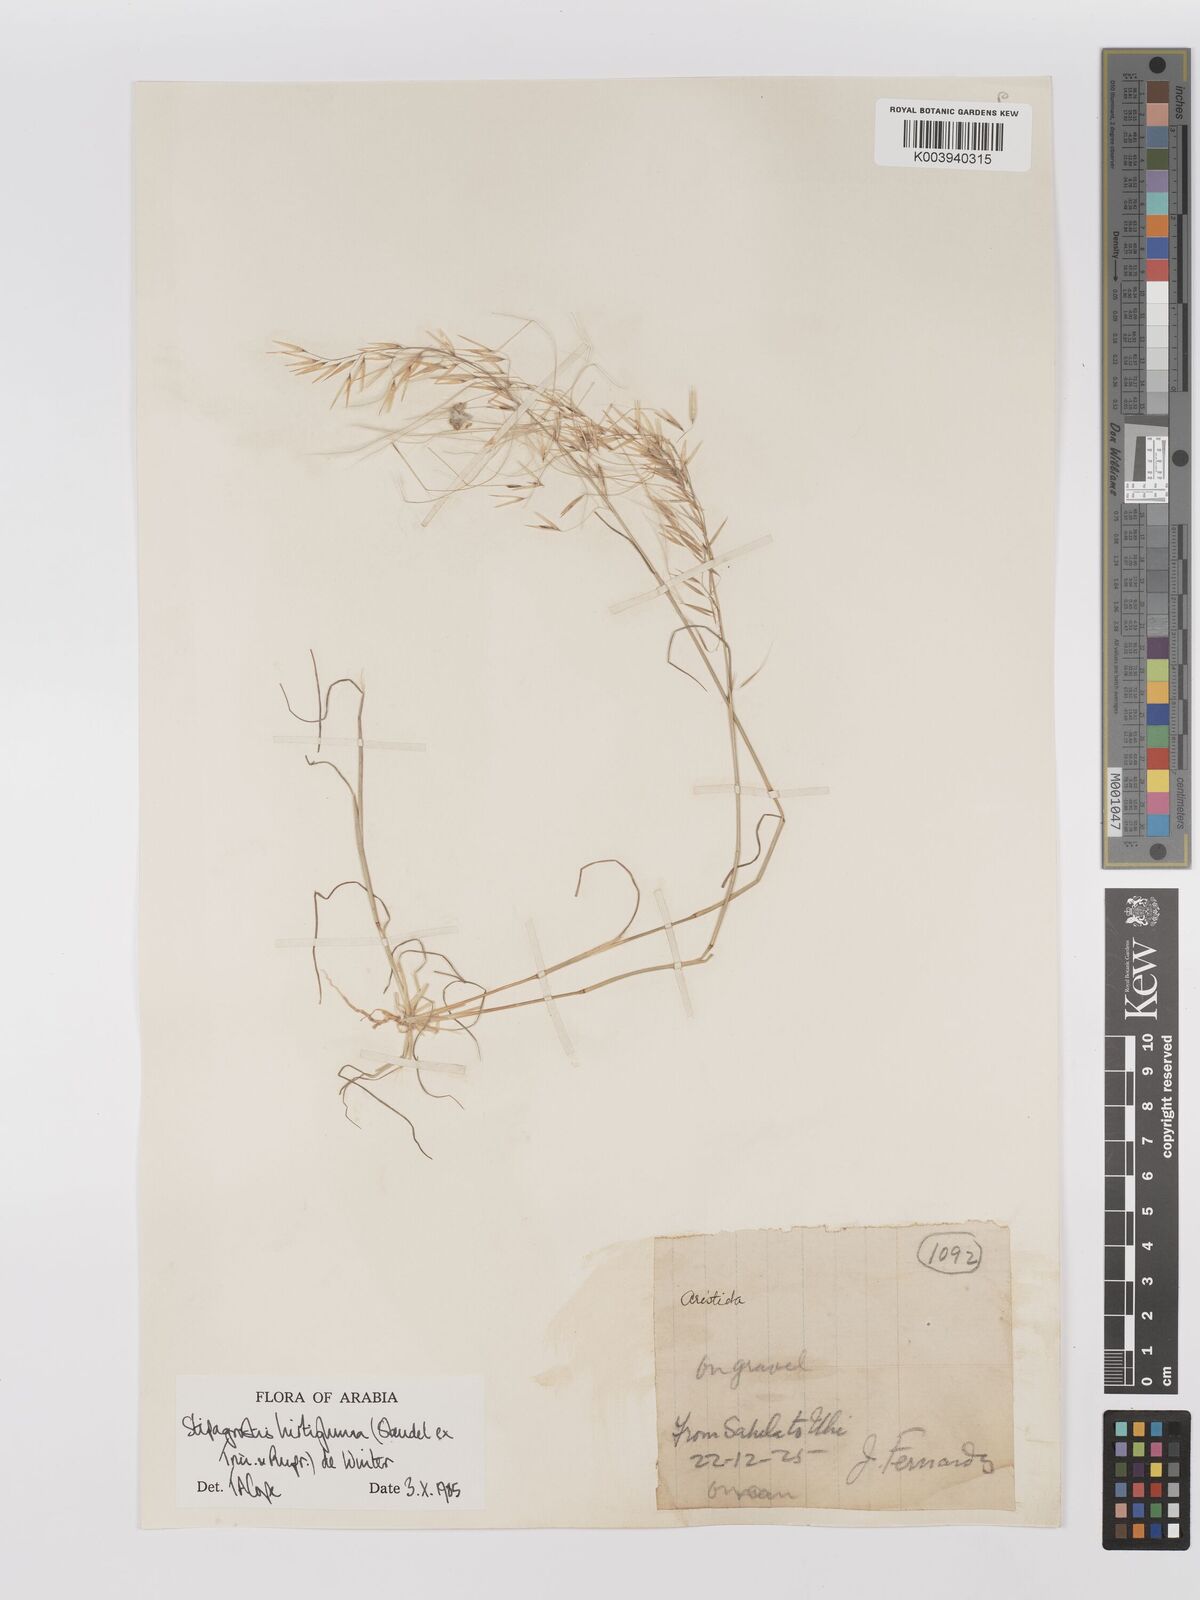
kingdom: Plantae
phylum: Tracheophyta
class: Liliopsida
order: Poales
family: Poaceae
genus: Stipagrostis
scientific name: Stipagrostis hirtigluma
